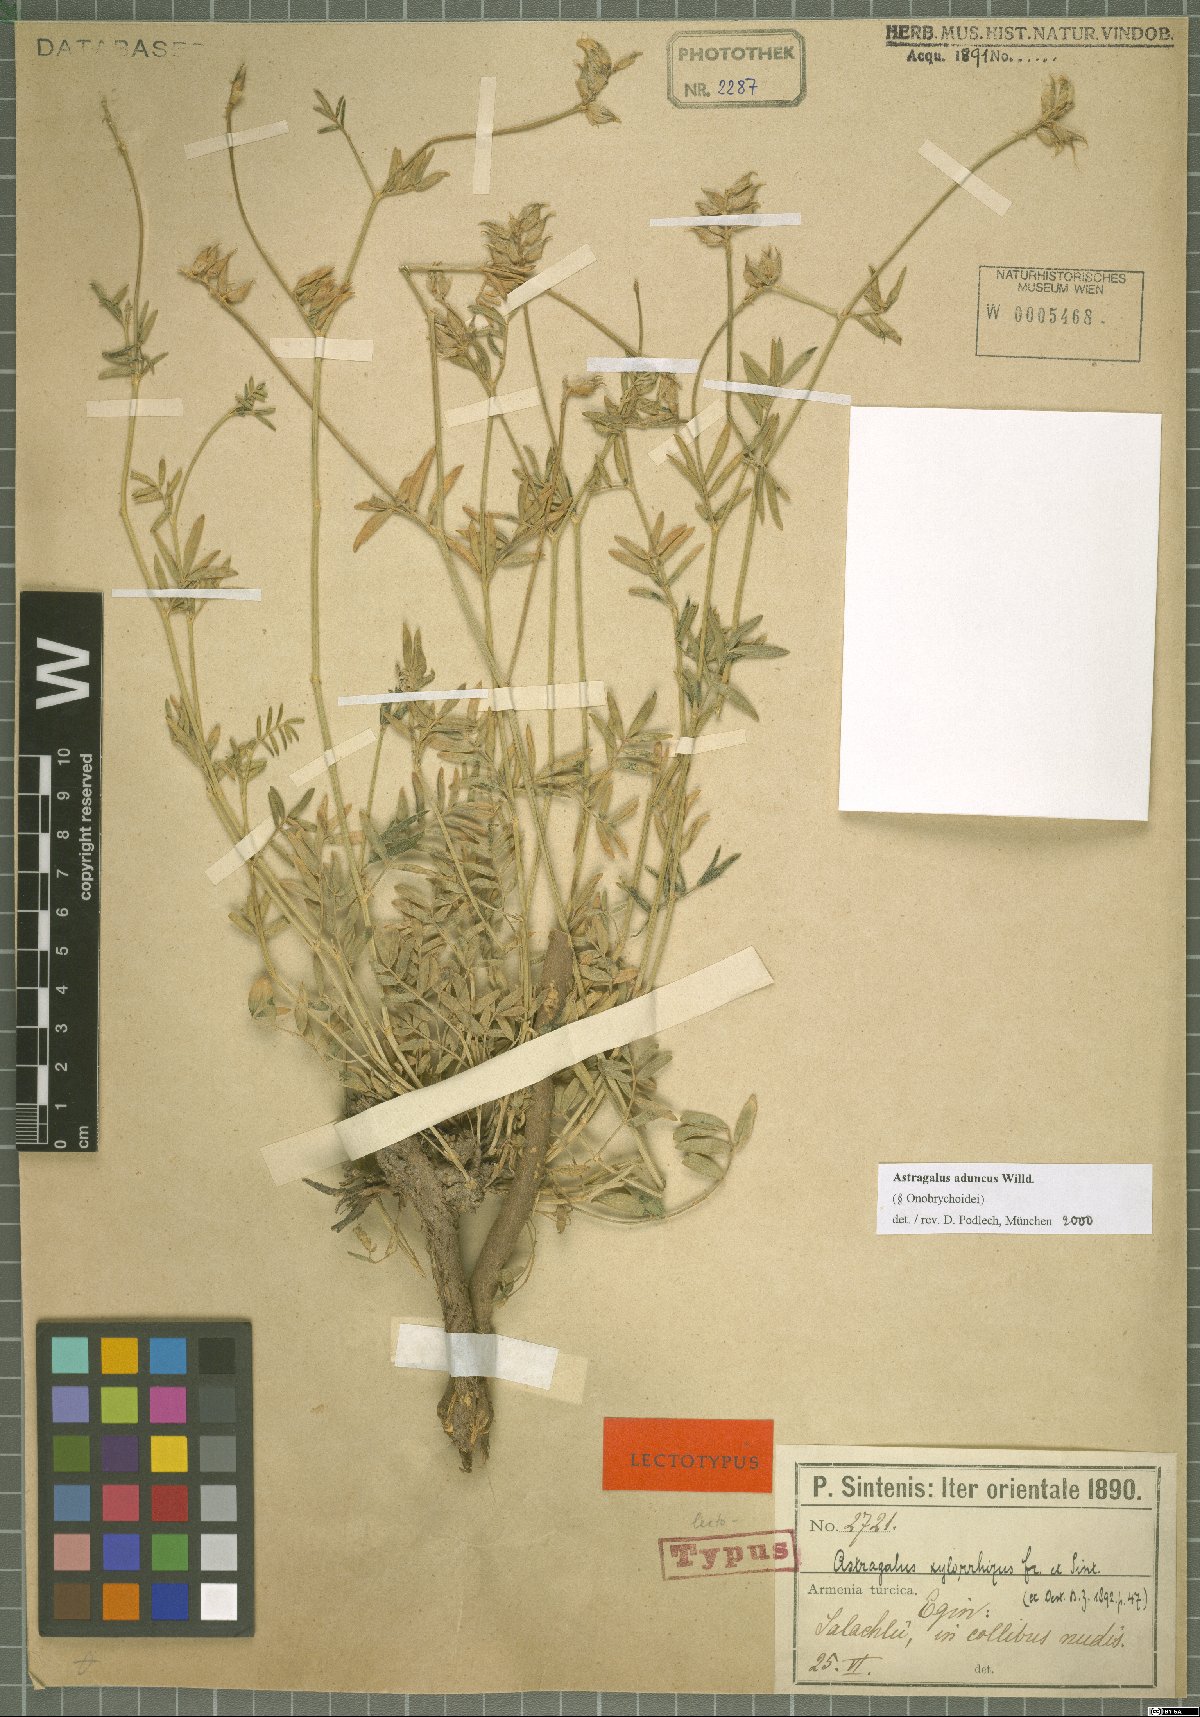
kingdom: Plantae
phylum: Tracheophyta
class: Magnoliopsida
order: Fabales
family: Fabaceae
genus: Astragalus
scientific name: Astragalus aduncus
